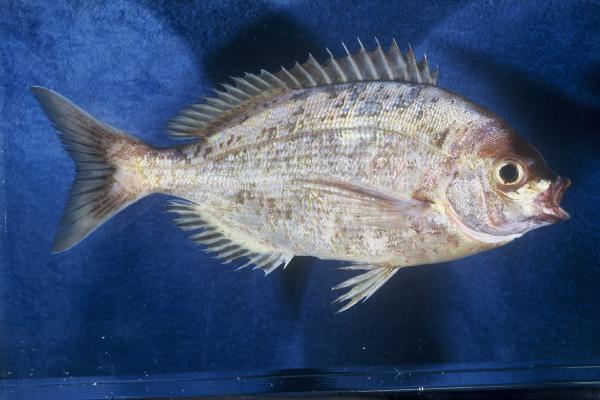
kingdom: Animalia
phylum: Chordata
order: Perciformes
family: Sparidae
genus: Pachymetopon
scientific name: Pachymetopon aeneum
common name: Blue hottentot
